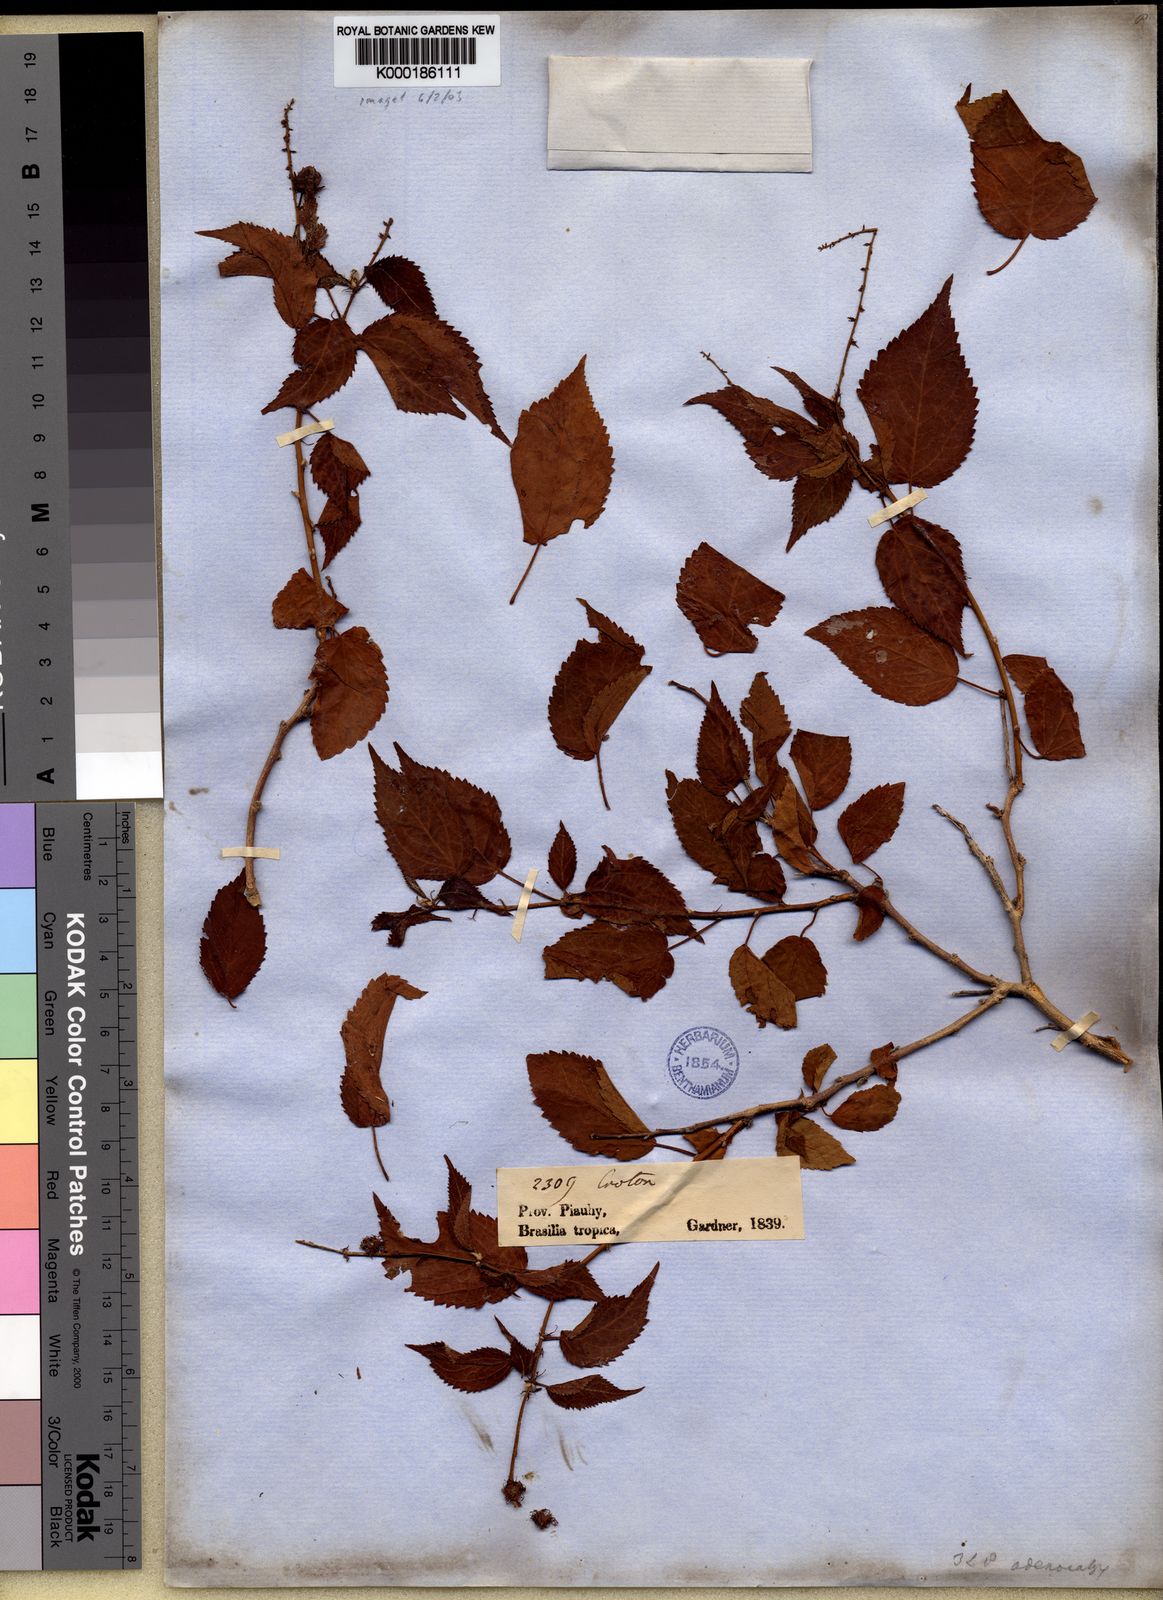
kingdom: Plantae
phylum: Tracheophyta
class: Magnoliopsida
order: Malpighiales
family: Euphorbiaceae
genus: Croton
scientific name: Croton adenocalyx
